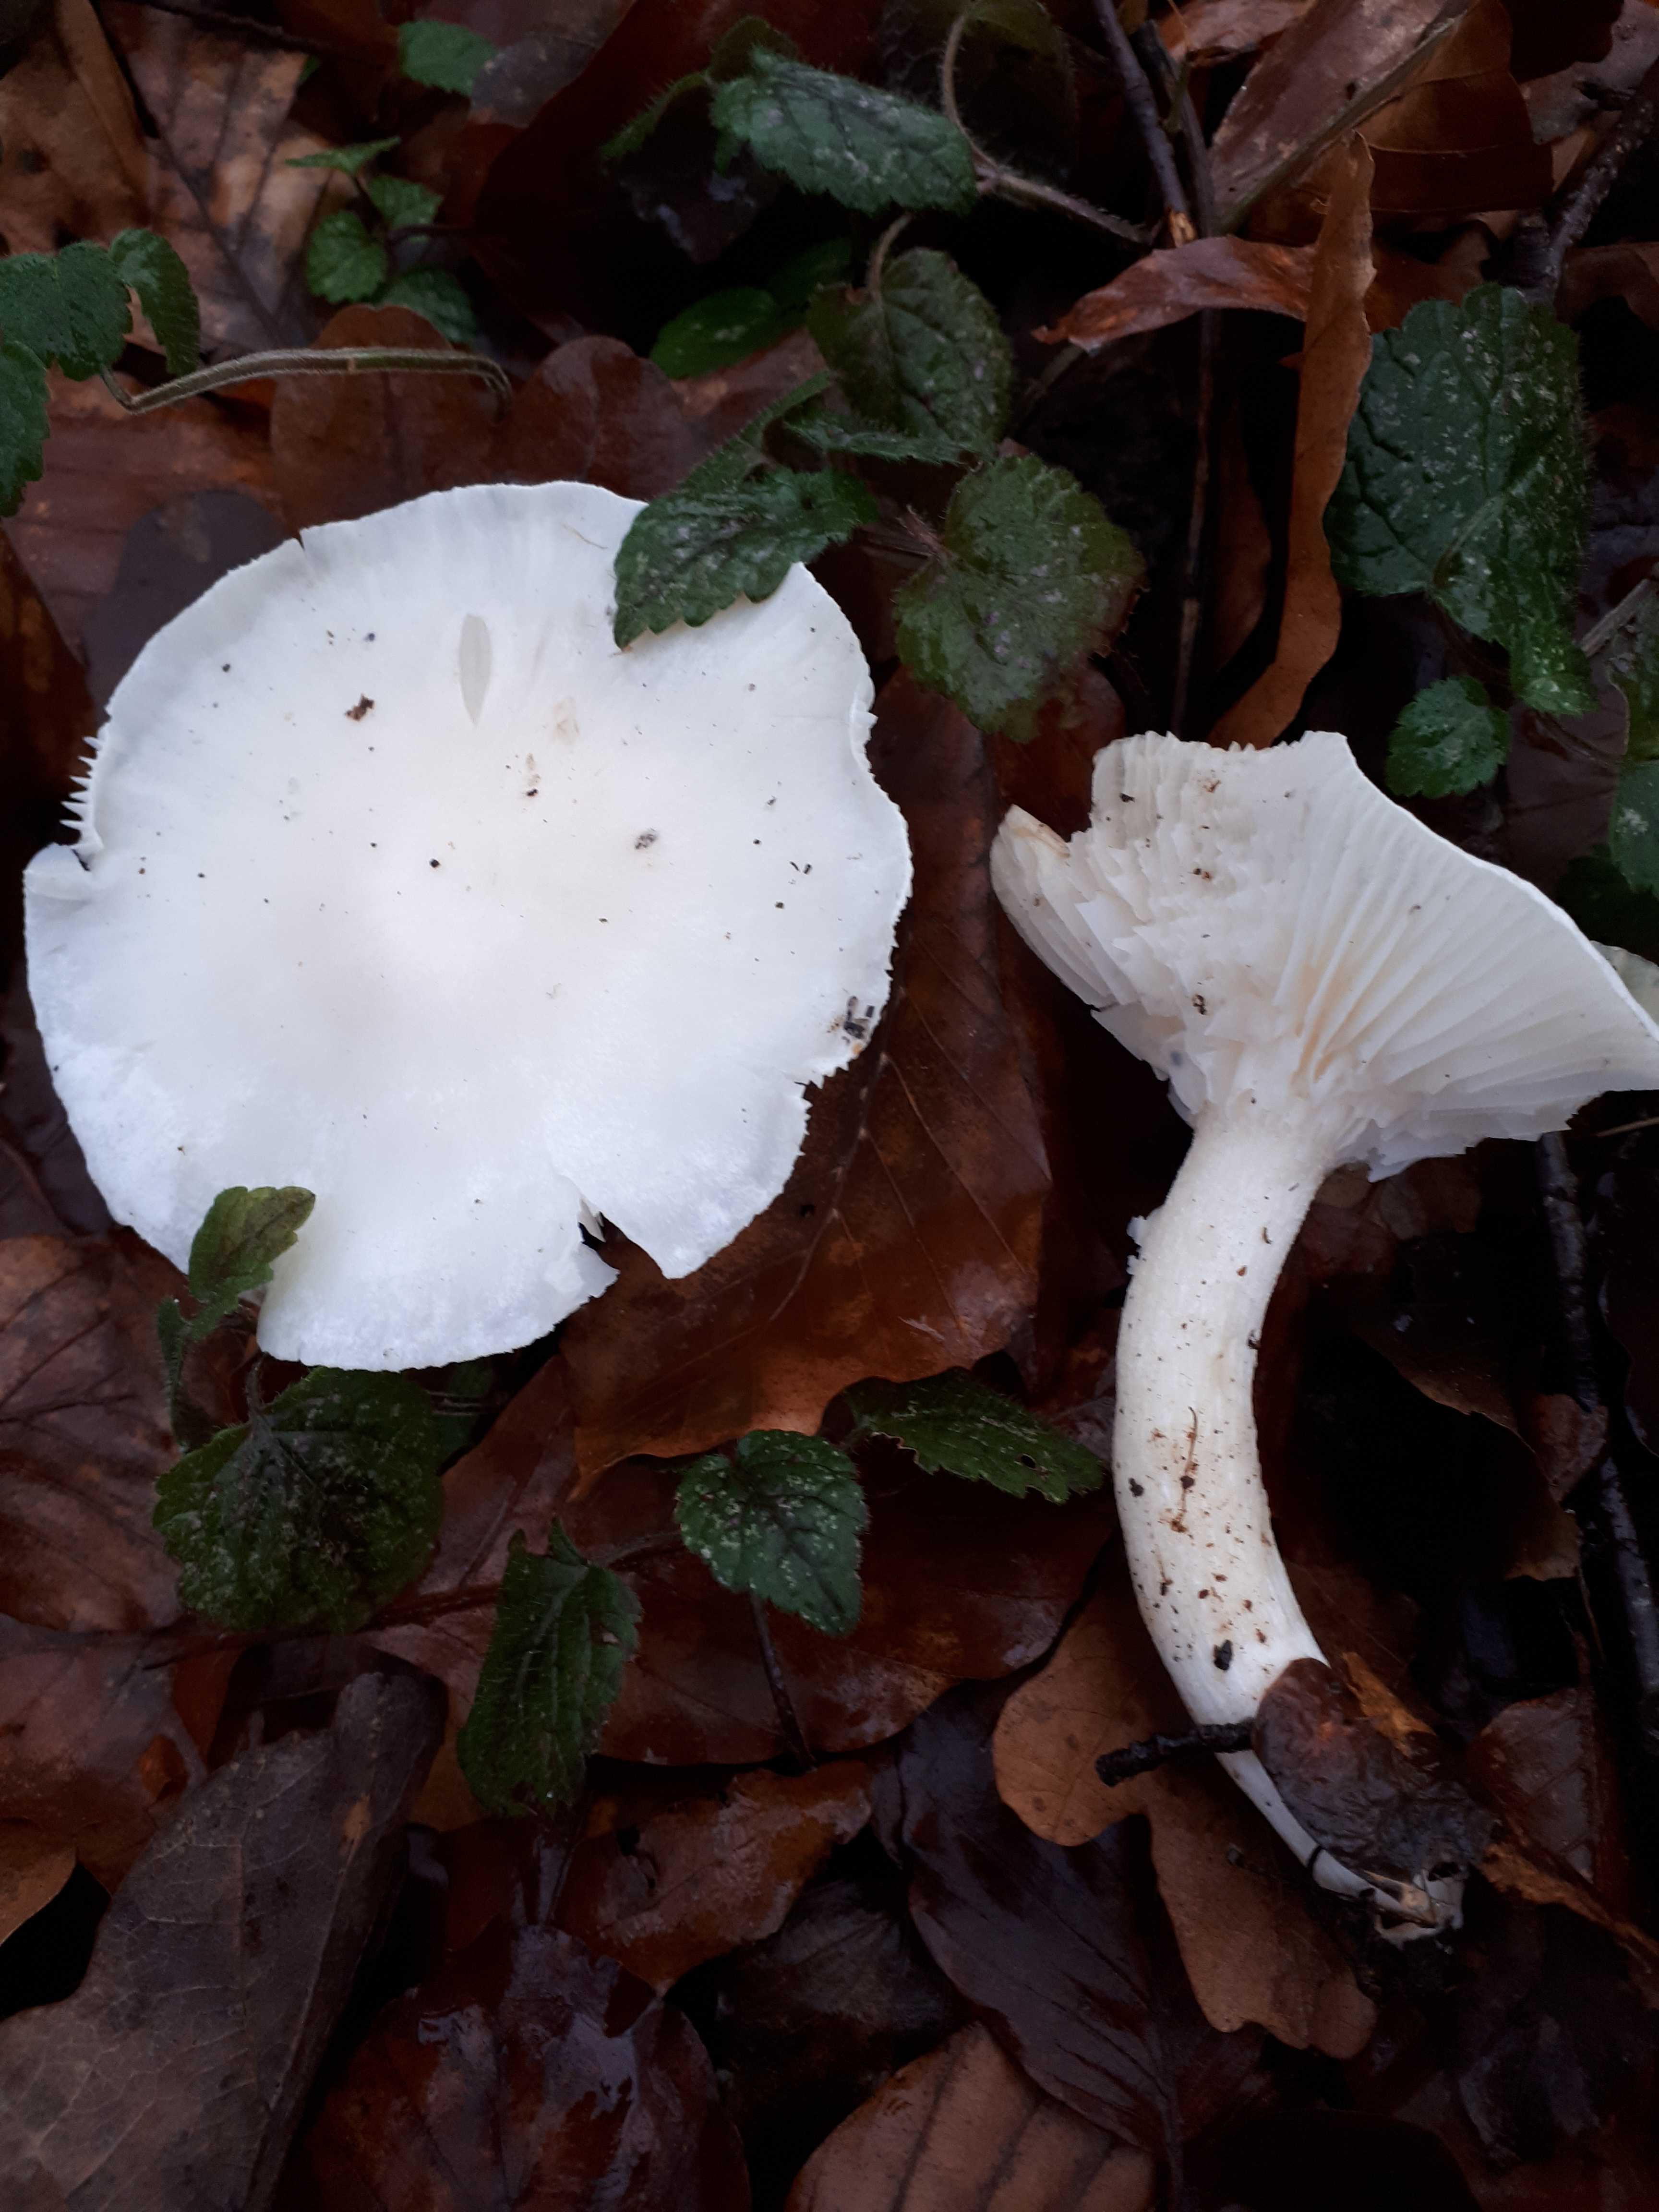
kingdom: Fungi
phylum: Basidiomycota
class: Agaricomycetes
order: Agaricales
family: Hygrophoraceae
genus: Hygrophorus
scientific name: Hygrophorus
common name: sneglehat
